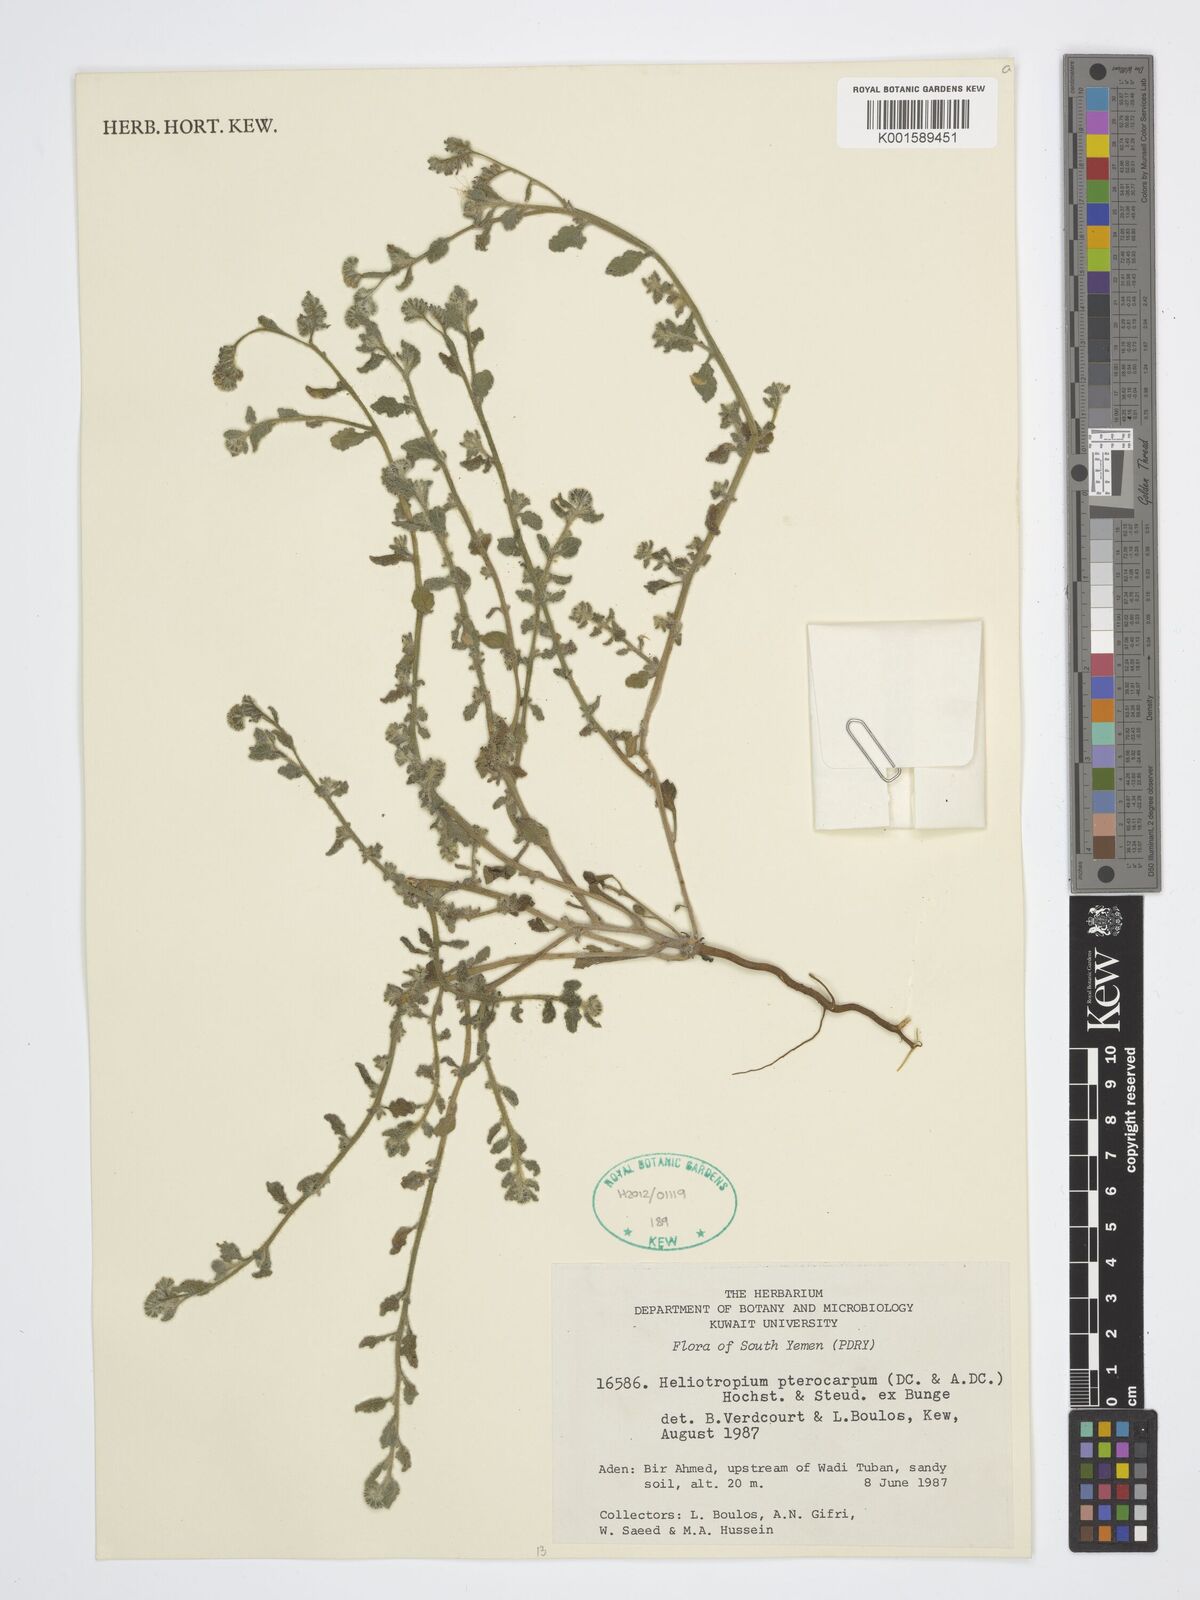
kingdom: Plantae
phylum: Tracheophyta
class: Magnoliopsida
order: Boraginales
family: Heliotropiaceae
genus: Heliotropium
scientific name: Heliotropium pterocarpum
